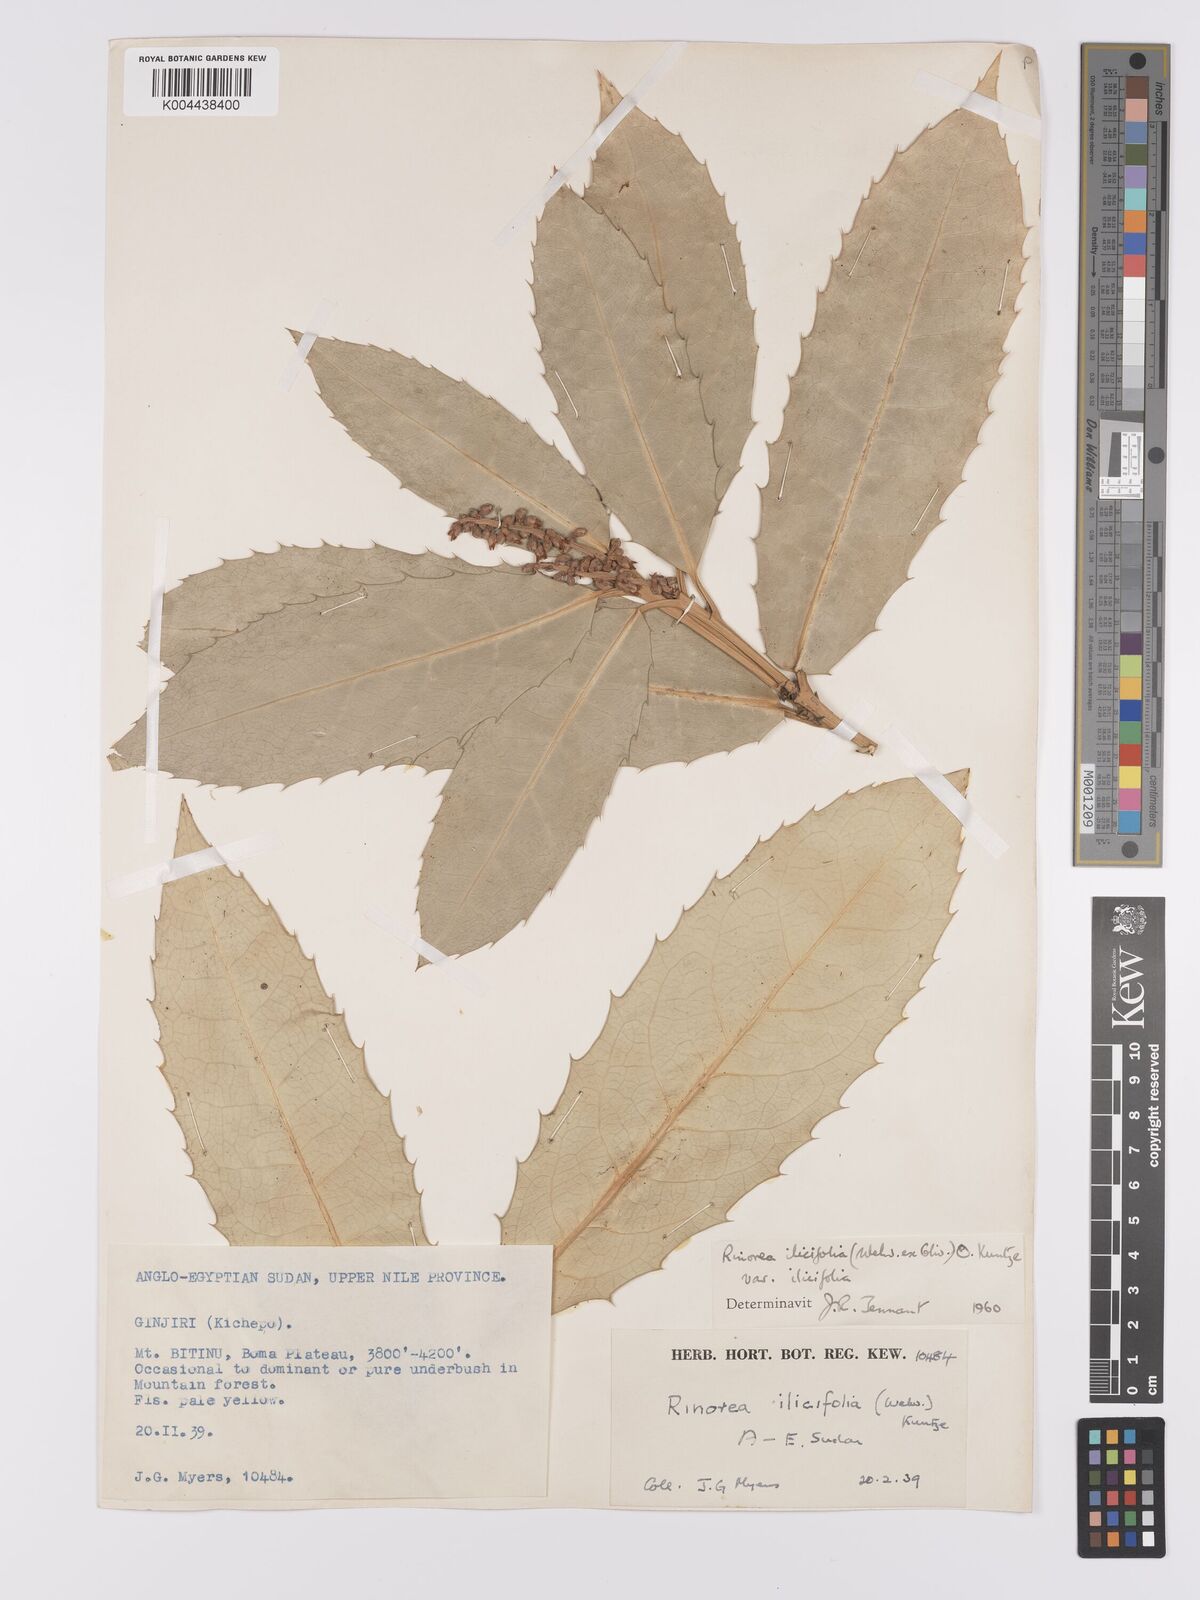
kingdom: Plantae
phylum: Tracheophyta
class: Magnoliopsida
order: Malpighiales
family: Violaceae
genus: Rinorea
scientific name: Rinorea ilicifolia
